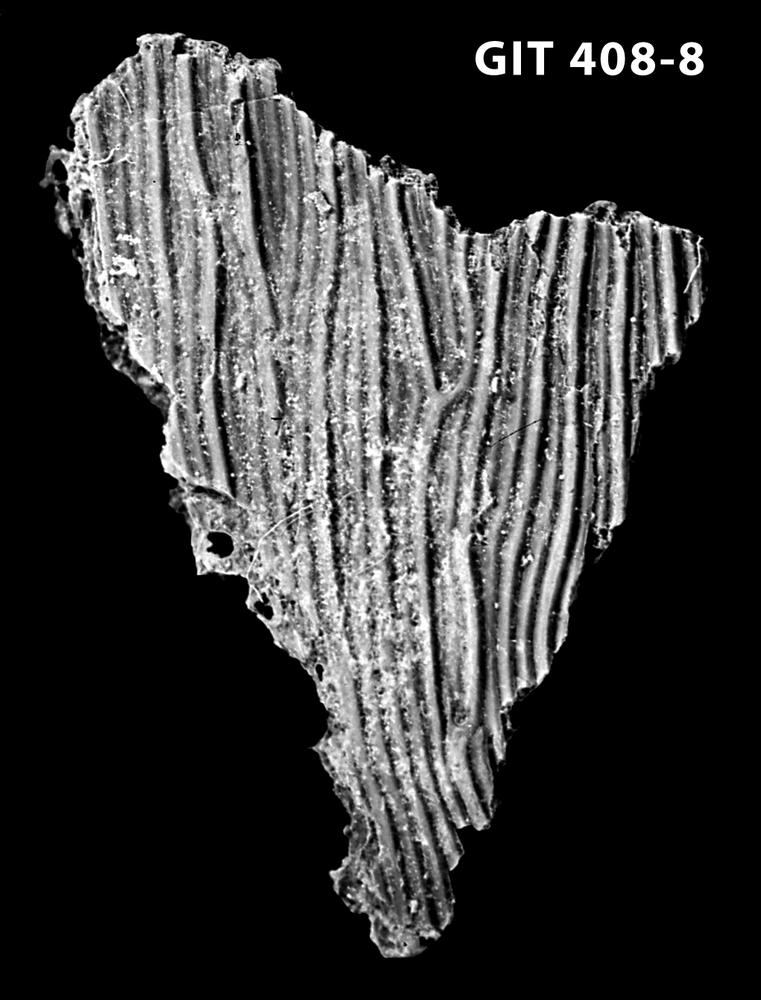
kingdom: Animalia
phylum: Chordata
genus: Archegonaspis
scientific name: Archegonaspis
